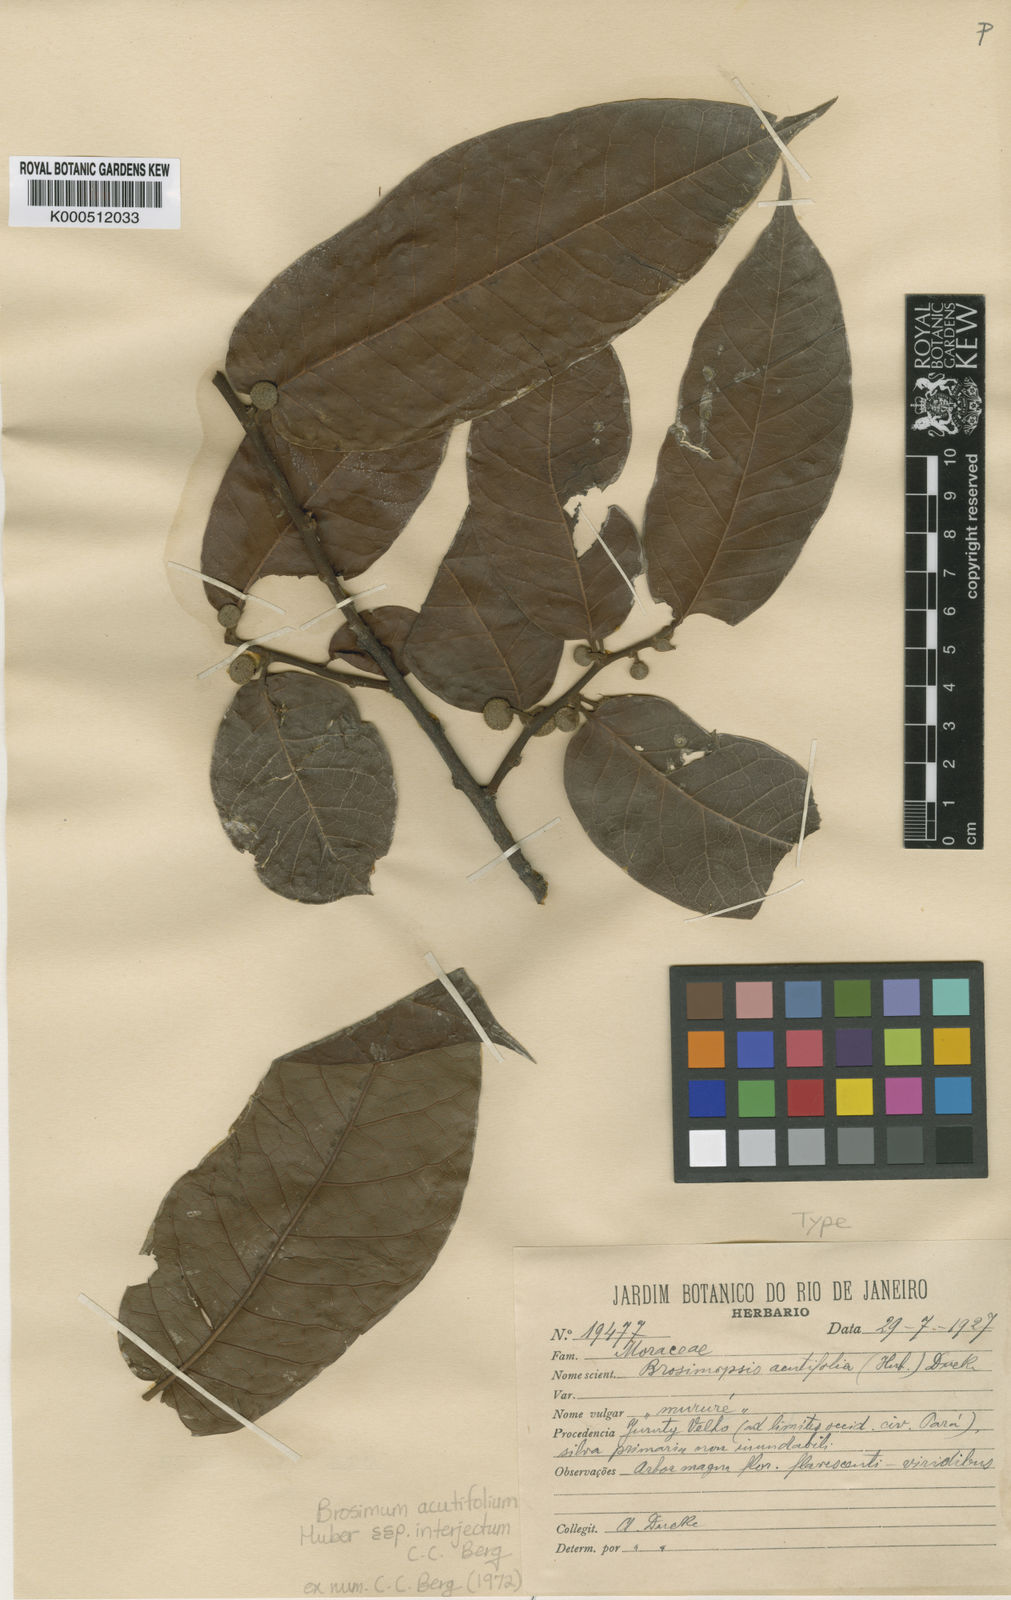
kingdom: Plantae
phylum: Tracheophyta
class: Magnoliopsida
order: Rosales
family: Moraceae
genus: Brosimum
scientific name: Brosimum alicastrum
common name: Breadnut
